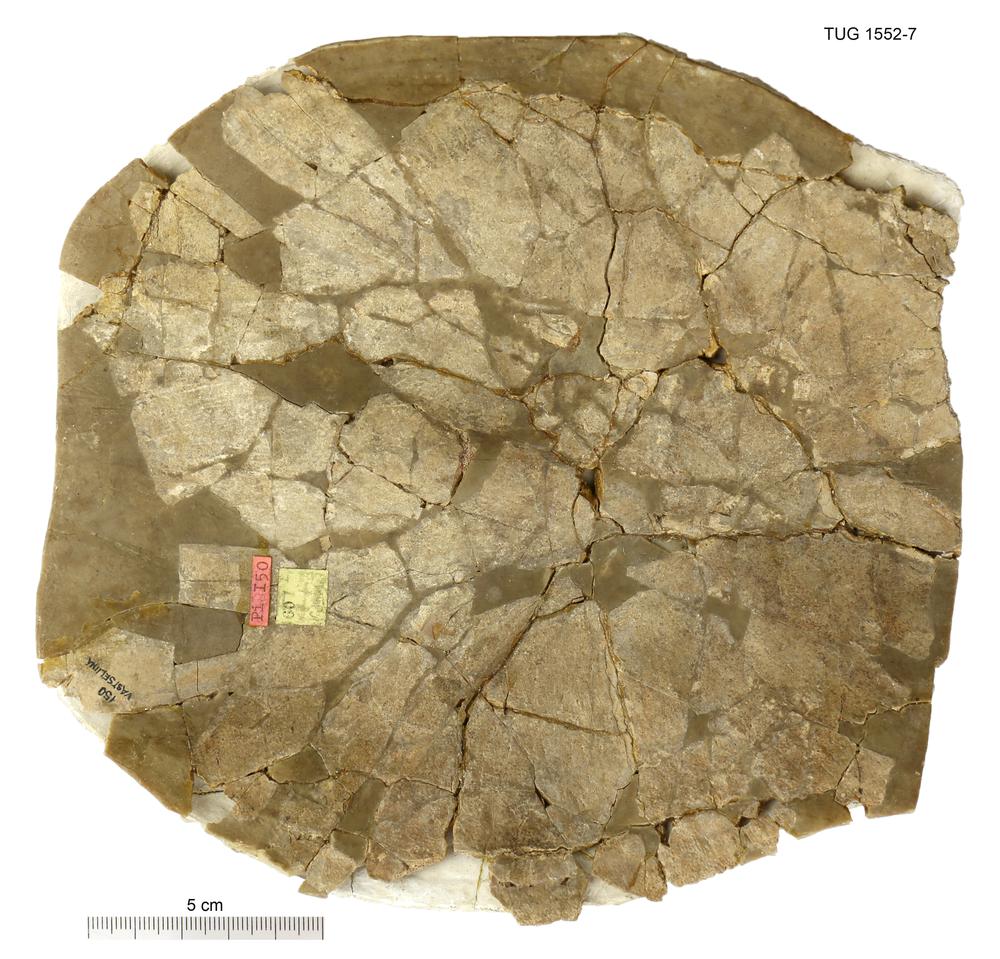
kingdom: Animalia
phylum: Chordata
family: Drepanaspididae
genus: Psammosteus
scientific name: Psammosteus praecursor
